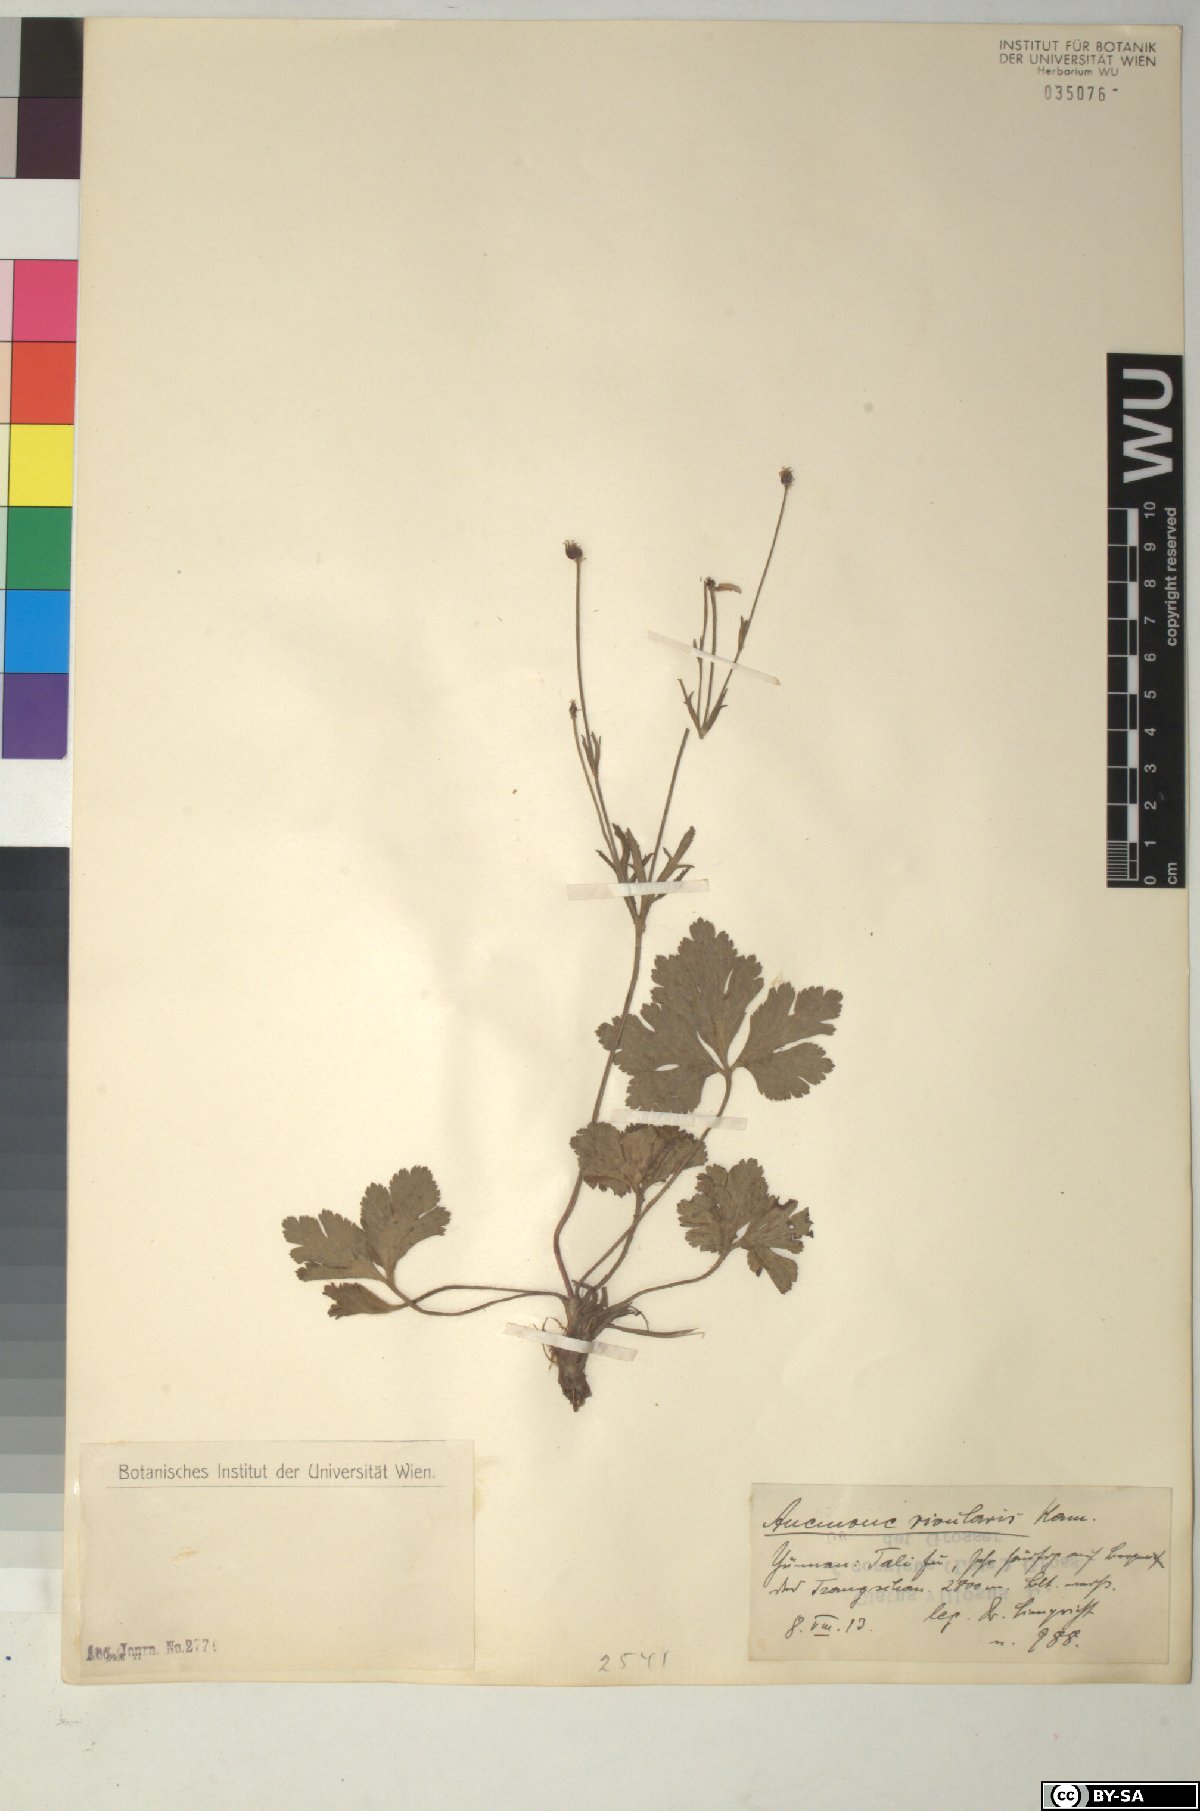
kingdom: Plantae
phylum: Tracheophyta
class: Magnoliopsida
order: Ranunculales
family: Ranunculaceae
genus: Eriocapitella
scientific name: Eriocapitella rivularis
